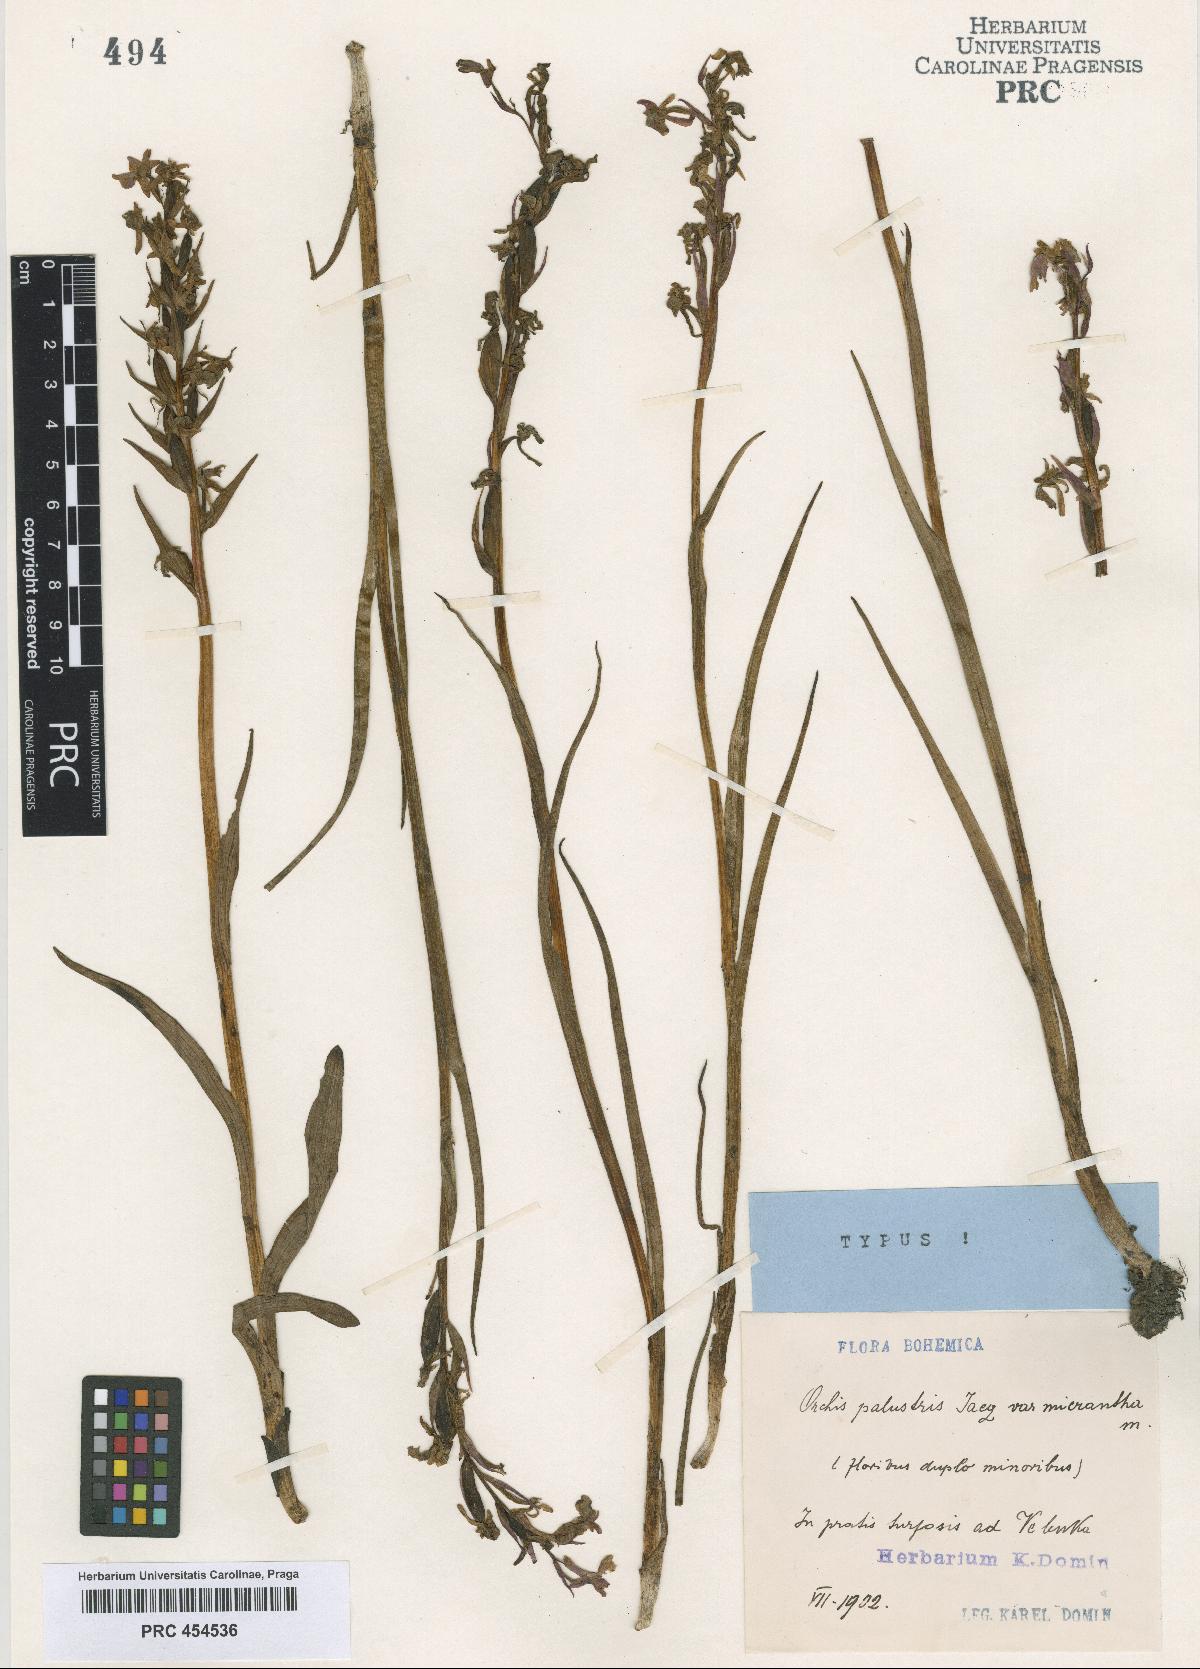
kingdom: Plantae
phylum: Tracheophyta
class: Liliopsida
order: Asparagales
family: Orchidaceae
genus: Anacamptis
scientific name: Anacamptis laxiflora
